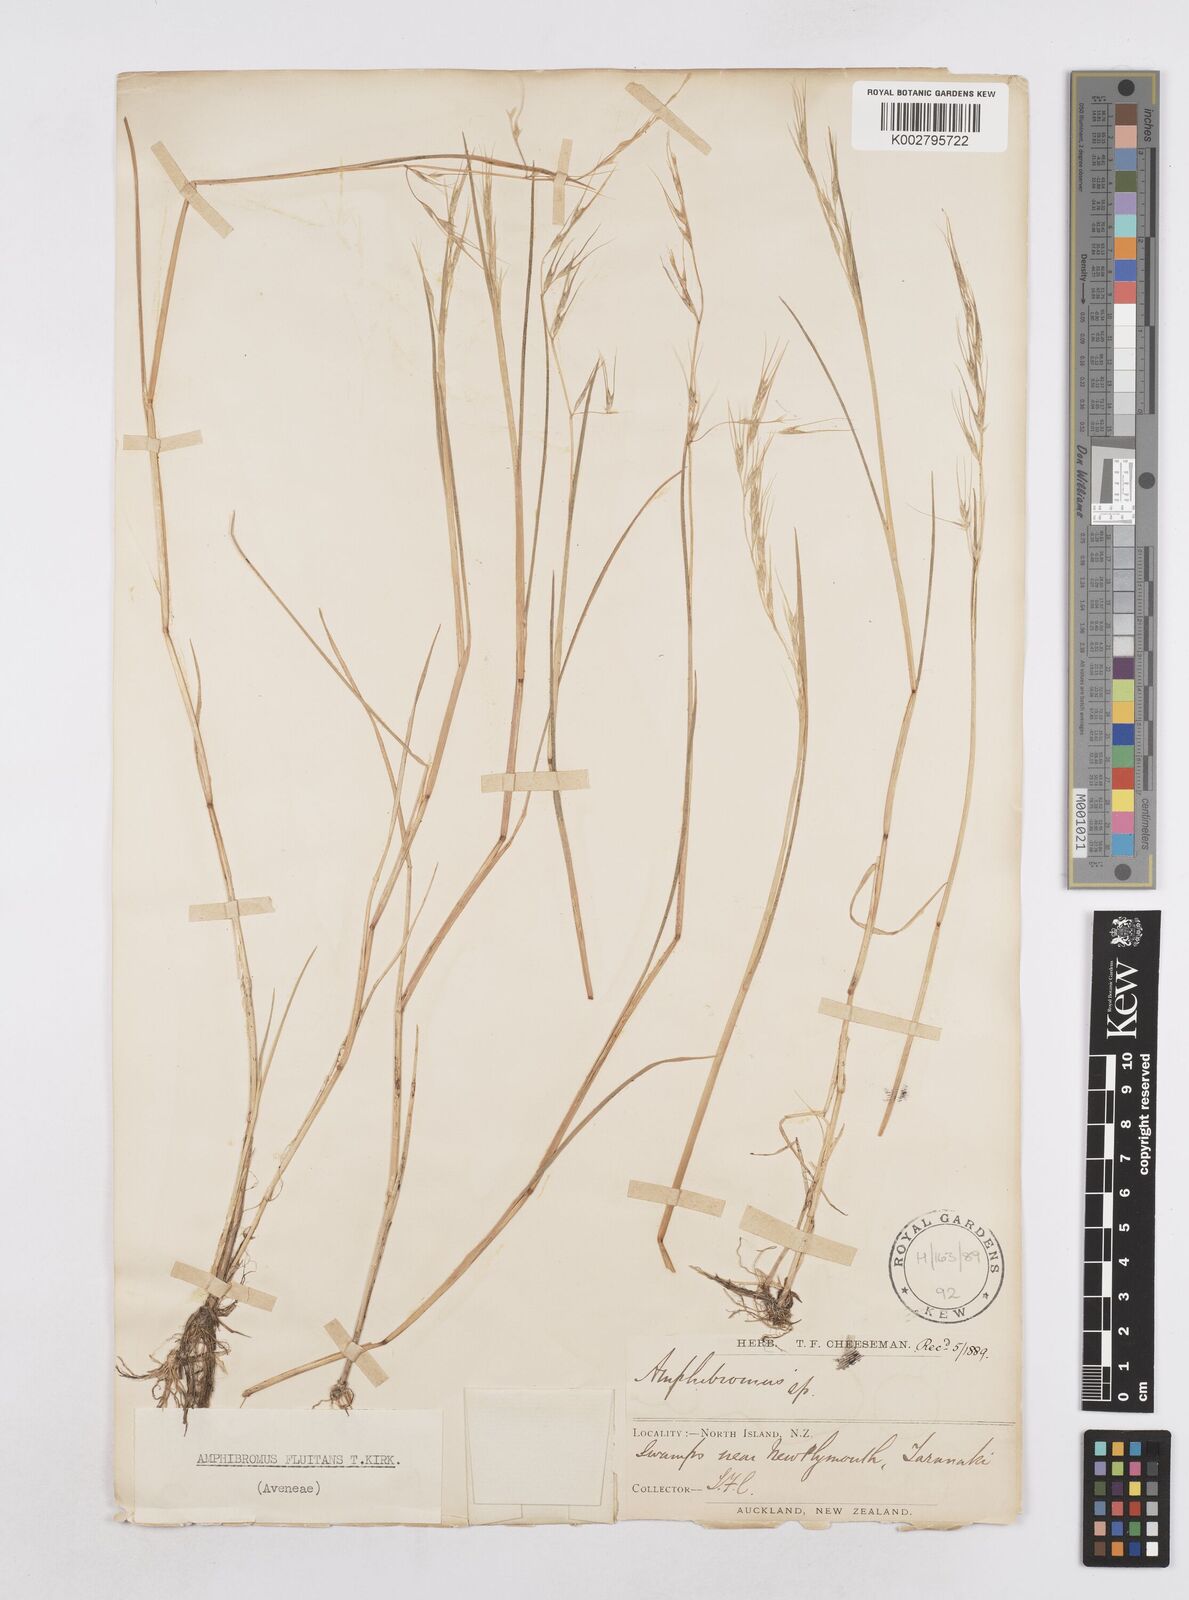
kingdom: Plantae
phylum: Tracheophyta
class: Liliopsida
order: Poales
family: Poaceae
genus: Helictotrichon
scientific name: Helictotrichon
